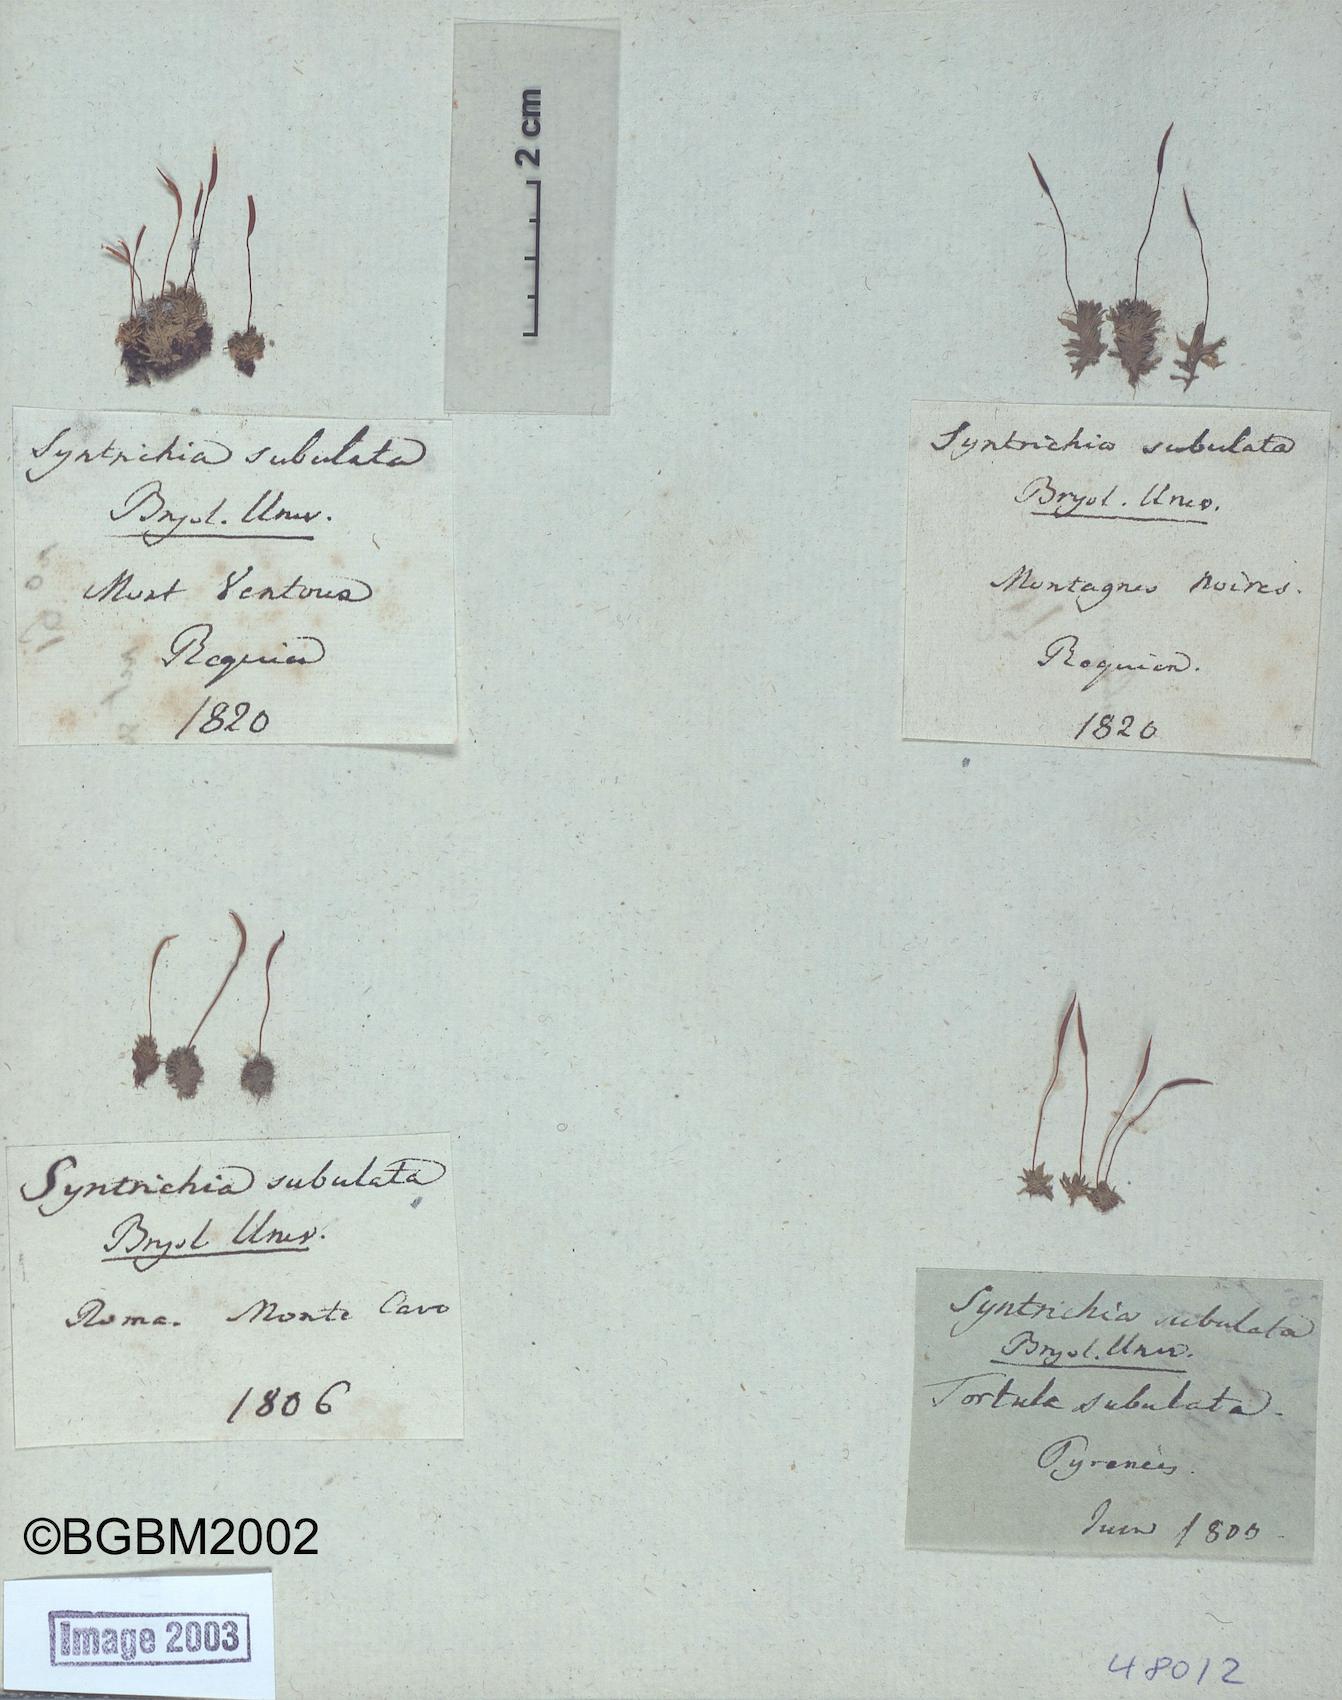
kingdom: Plantae
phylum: Bryophyta
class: Bryopsida
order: Pottiales
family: Pottiaceae
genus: Tortula
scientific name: Tortula subulata
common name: Upright screw-moss
